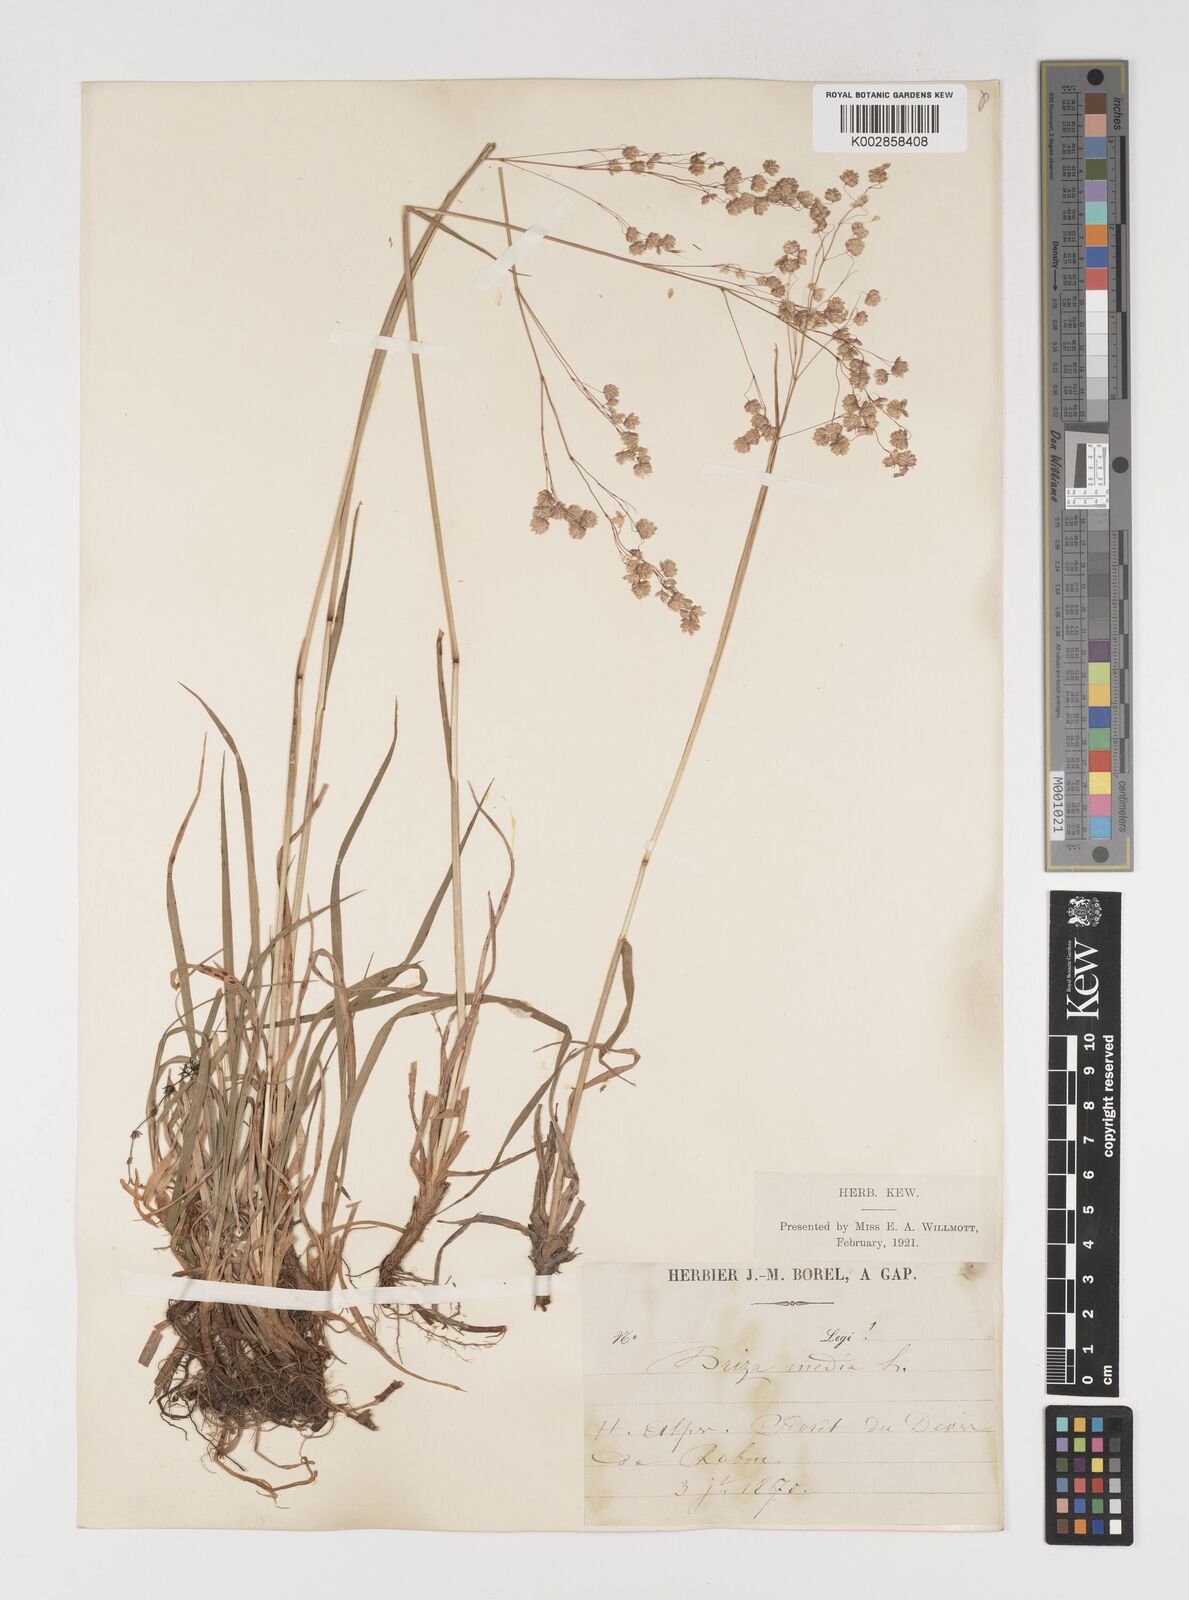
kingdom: Plantae
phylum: Tracheophyta
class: Liliopsida
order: Poales
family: Poaceae
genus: Briza
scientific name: Briza media
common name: Quaking grass
